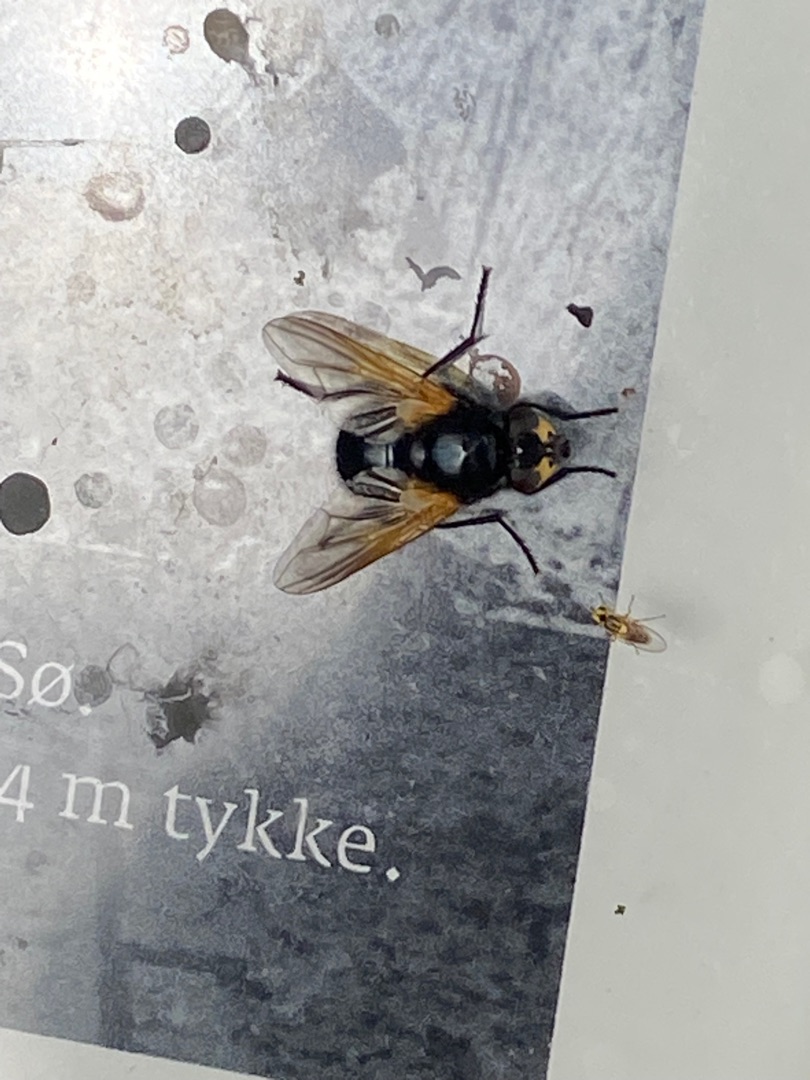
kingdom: Animalia
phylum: Arthropoda
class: Insecta
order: Diptera
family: Muscidae
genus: Mesembrina
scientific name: Mesembrina meridiana
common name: Gulvinget flue
